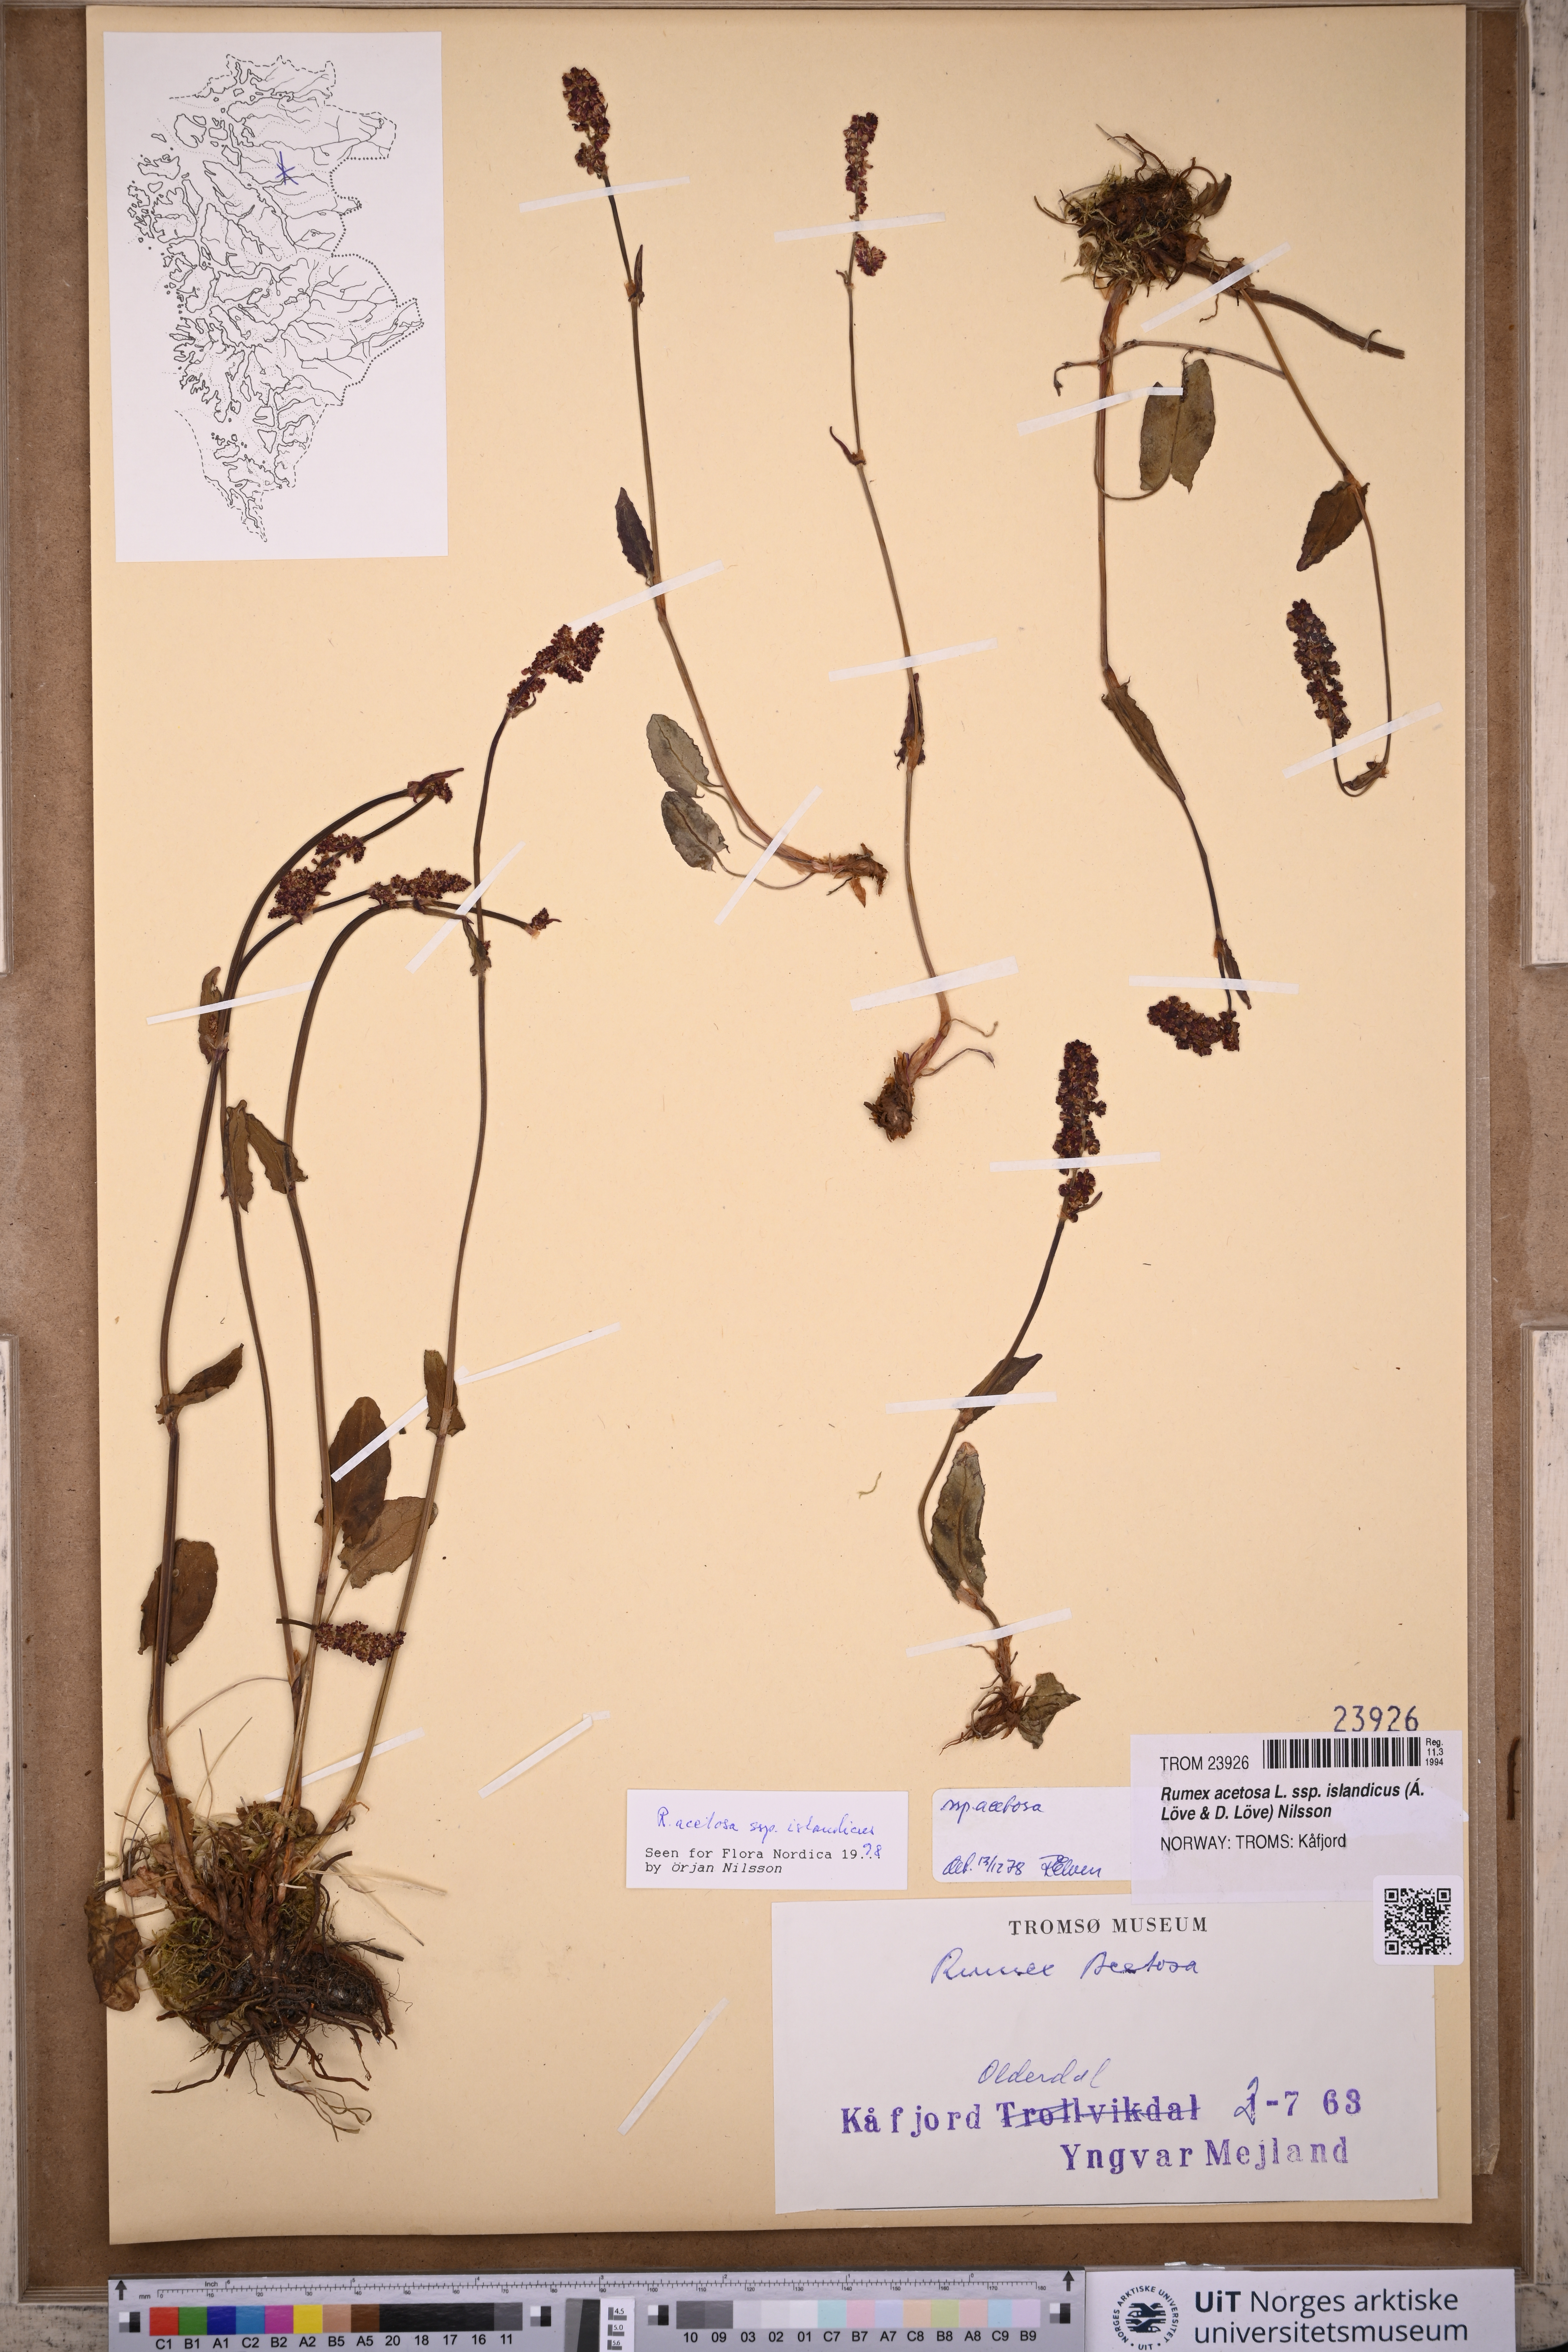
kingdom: Plantae
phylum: Tracheophyta
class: Magnoliopsida
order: Caryophyllales
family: Polygonaceae
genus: Rumex
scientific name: Rumex acetosa
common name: Garden sorrel
